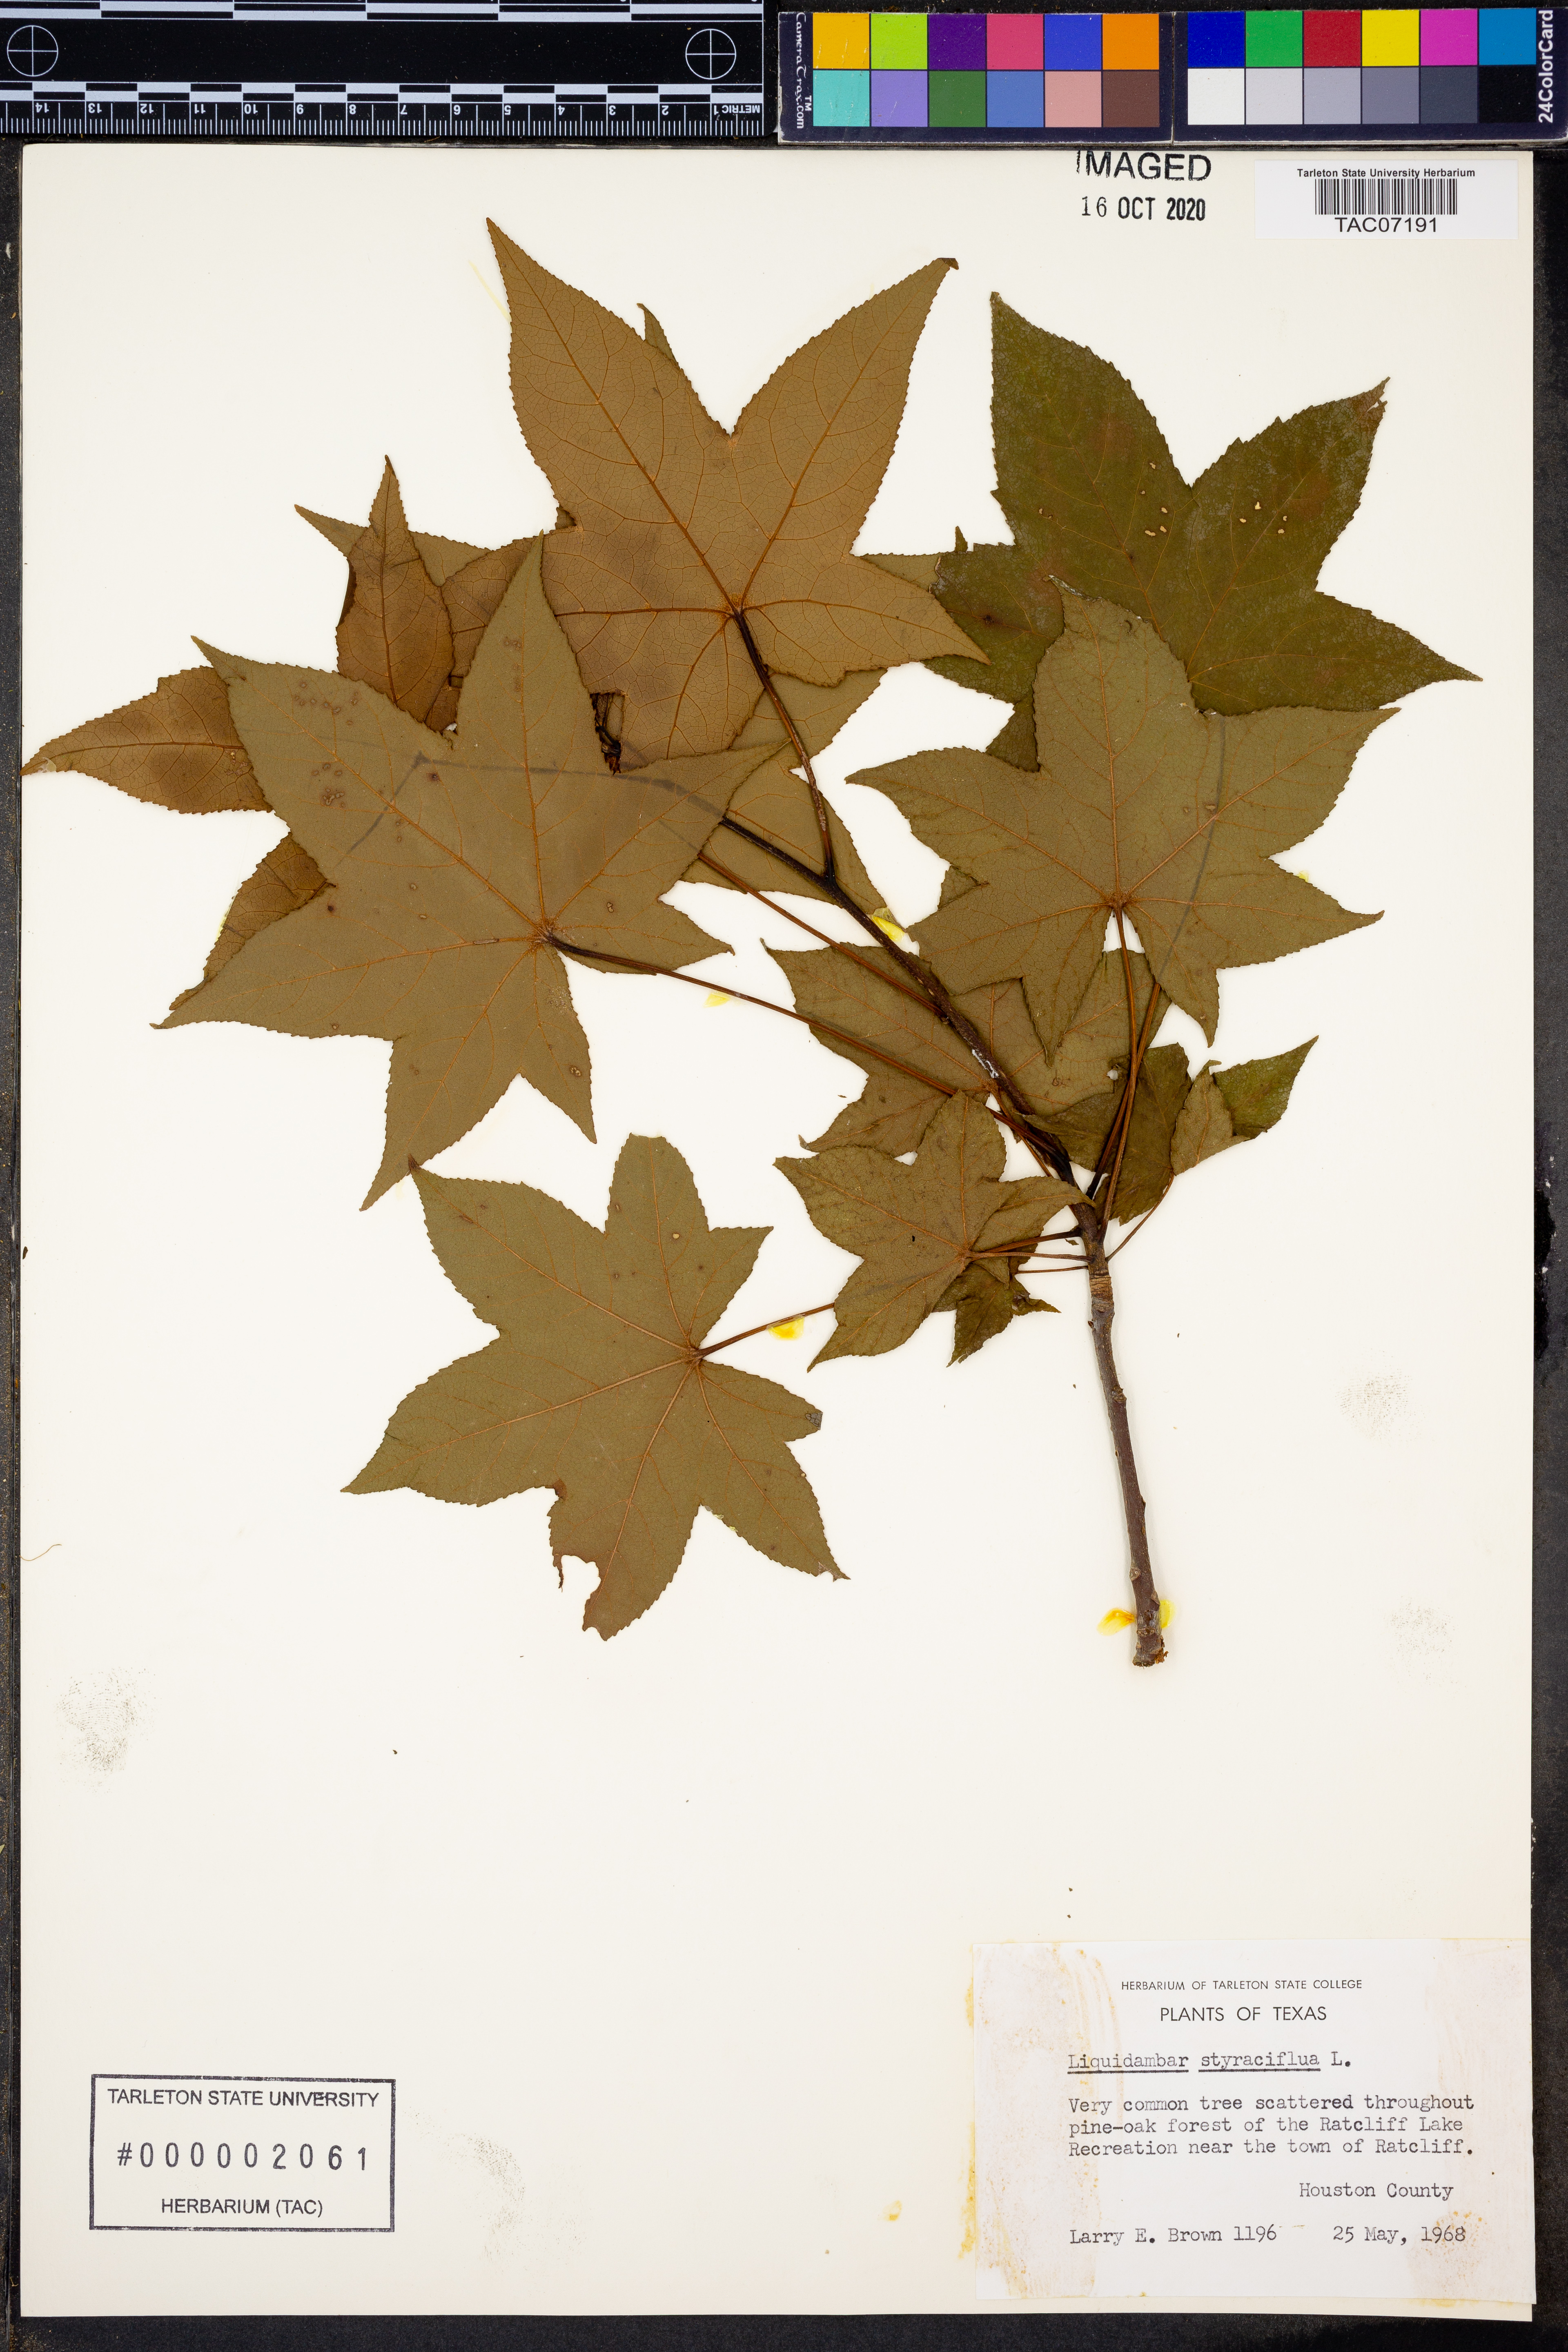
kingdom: Plantae
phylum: Tracheophyta
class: Magnoliopsida
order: Saxifragales
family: Altingiaceae
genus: Liquidambar
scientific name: Liquidambar styraciflua
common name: Sweet gum
